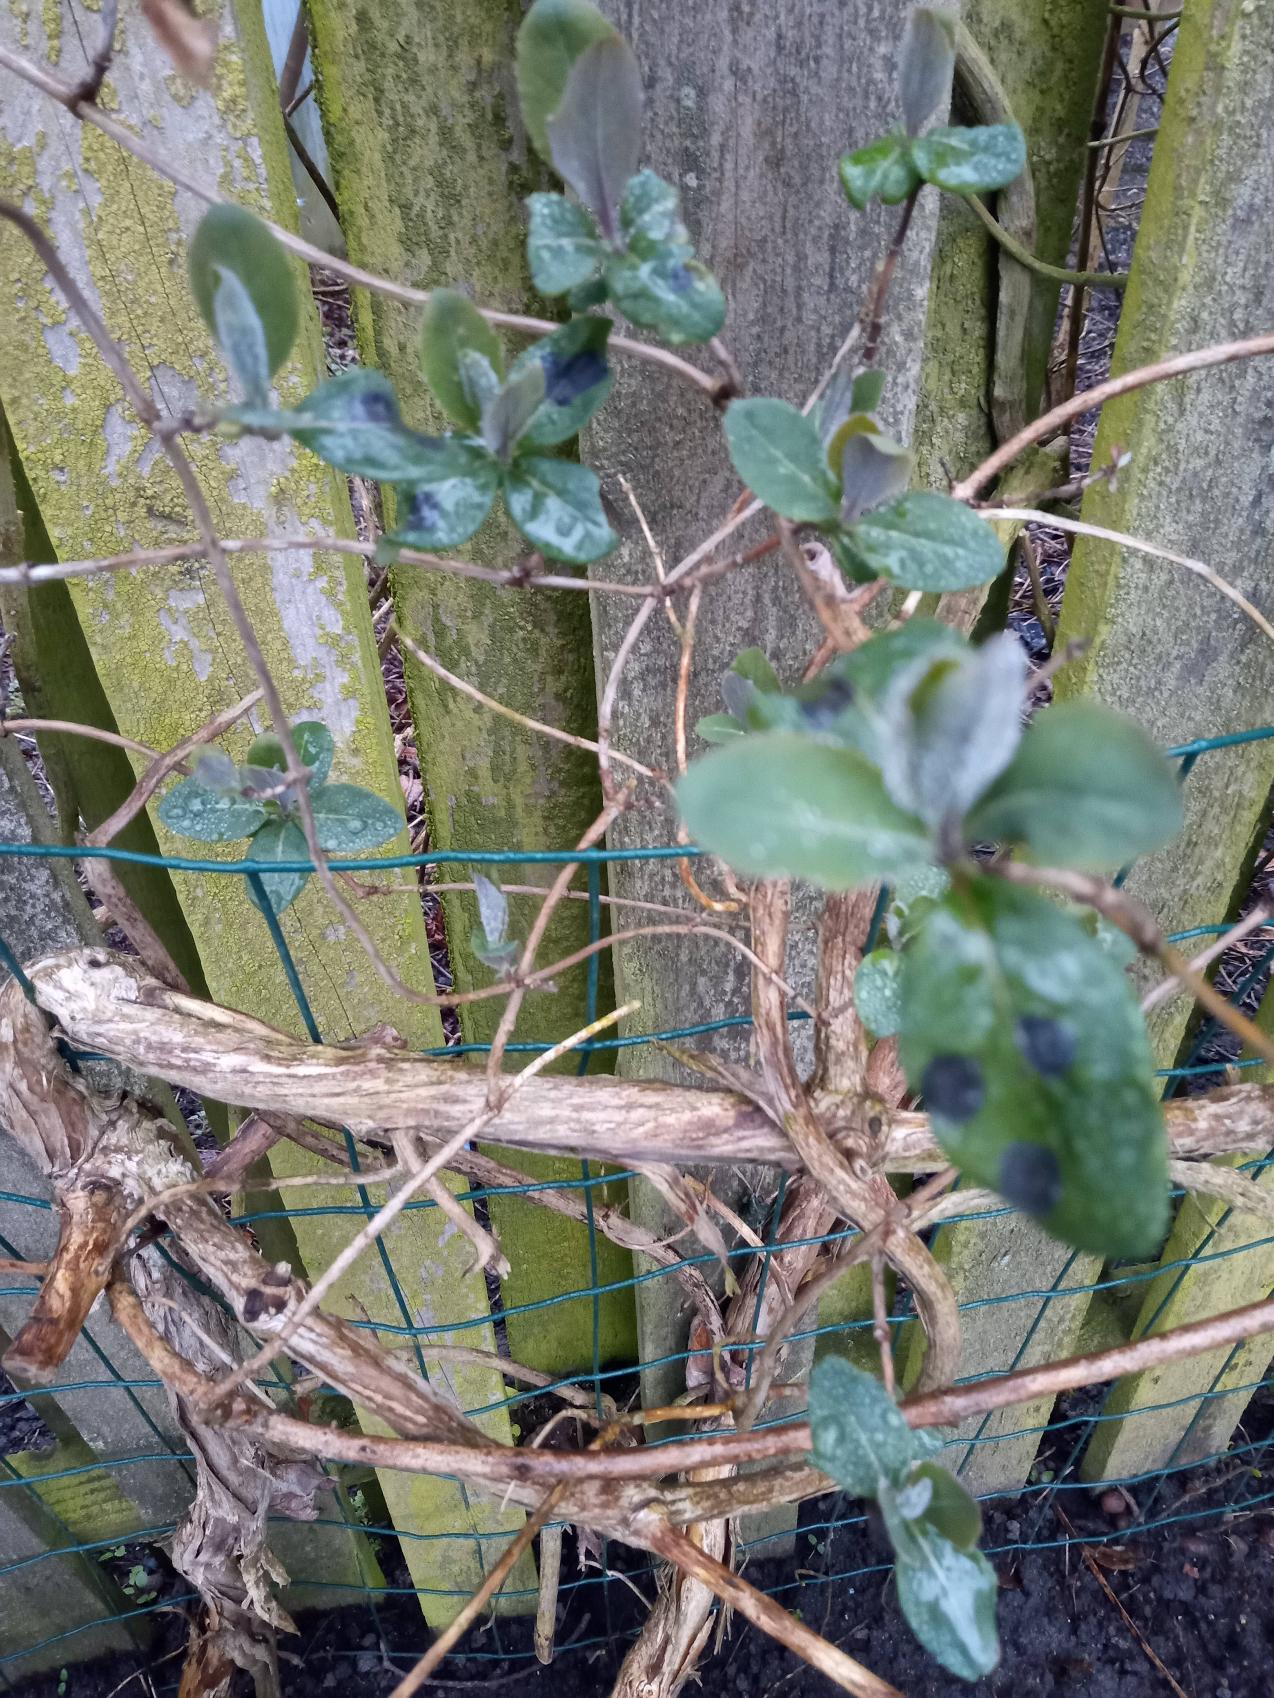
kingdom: Plantae
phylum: Tracheophyta
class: Magnoliopsida
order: Dipsacales
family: Caprifoliaceae
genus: Lonicera
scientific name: Lonicera periclymenum
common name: Almindelig gedeblad
